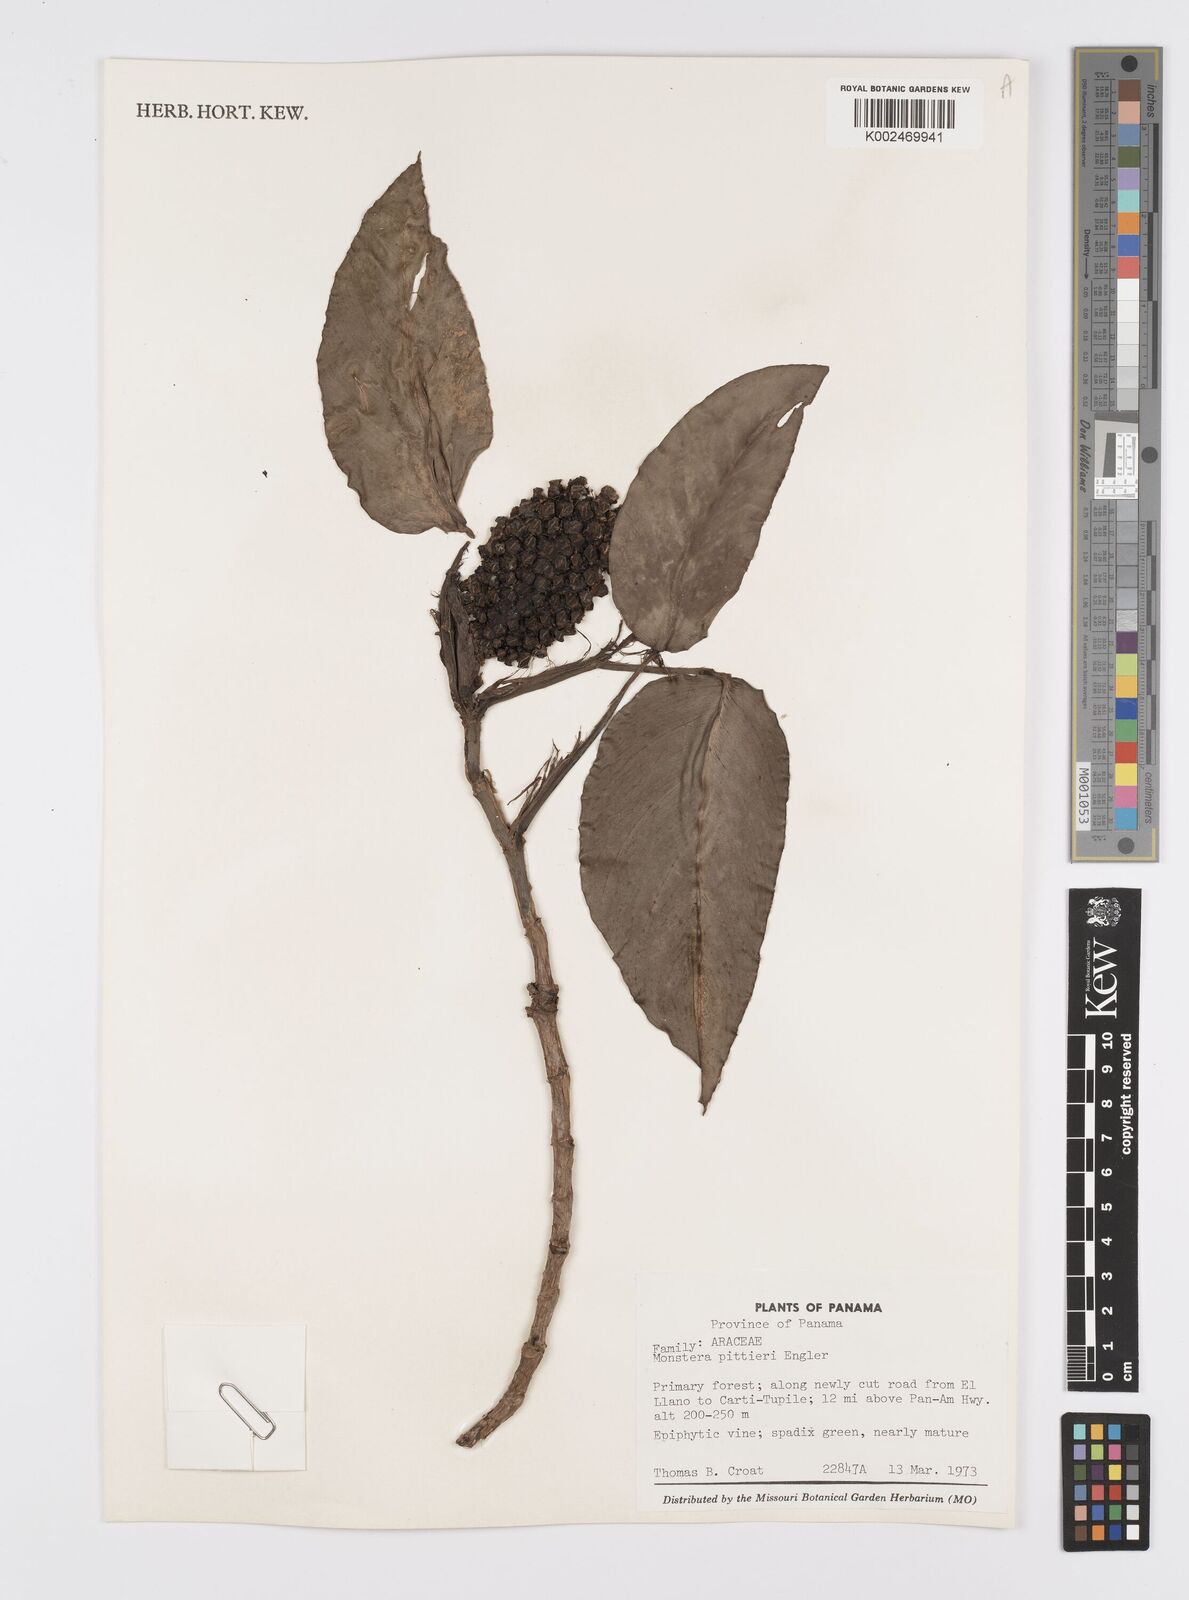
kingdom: Plantae
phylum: Tracheophyta
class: Liliopsida
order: Alismatales
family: Araceae
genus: Monstera
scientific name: Monstera pittieri
